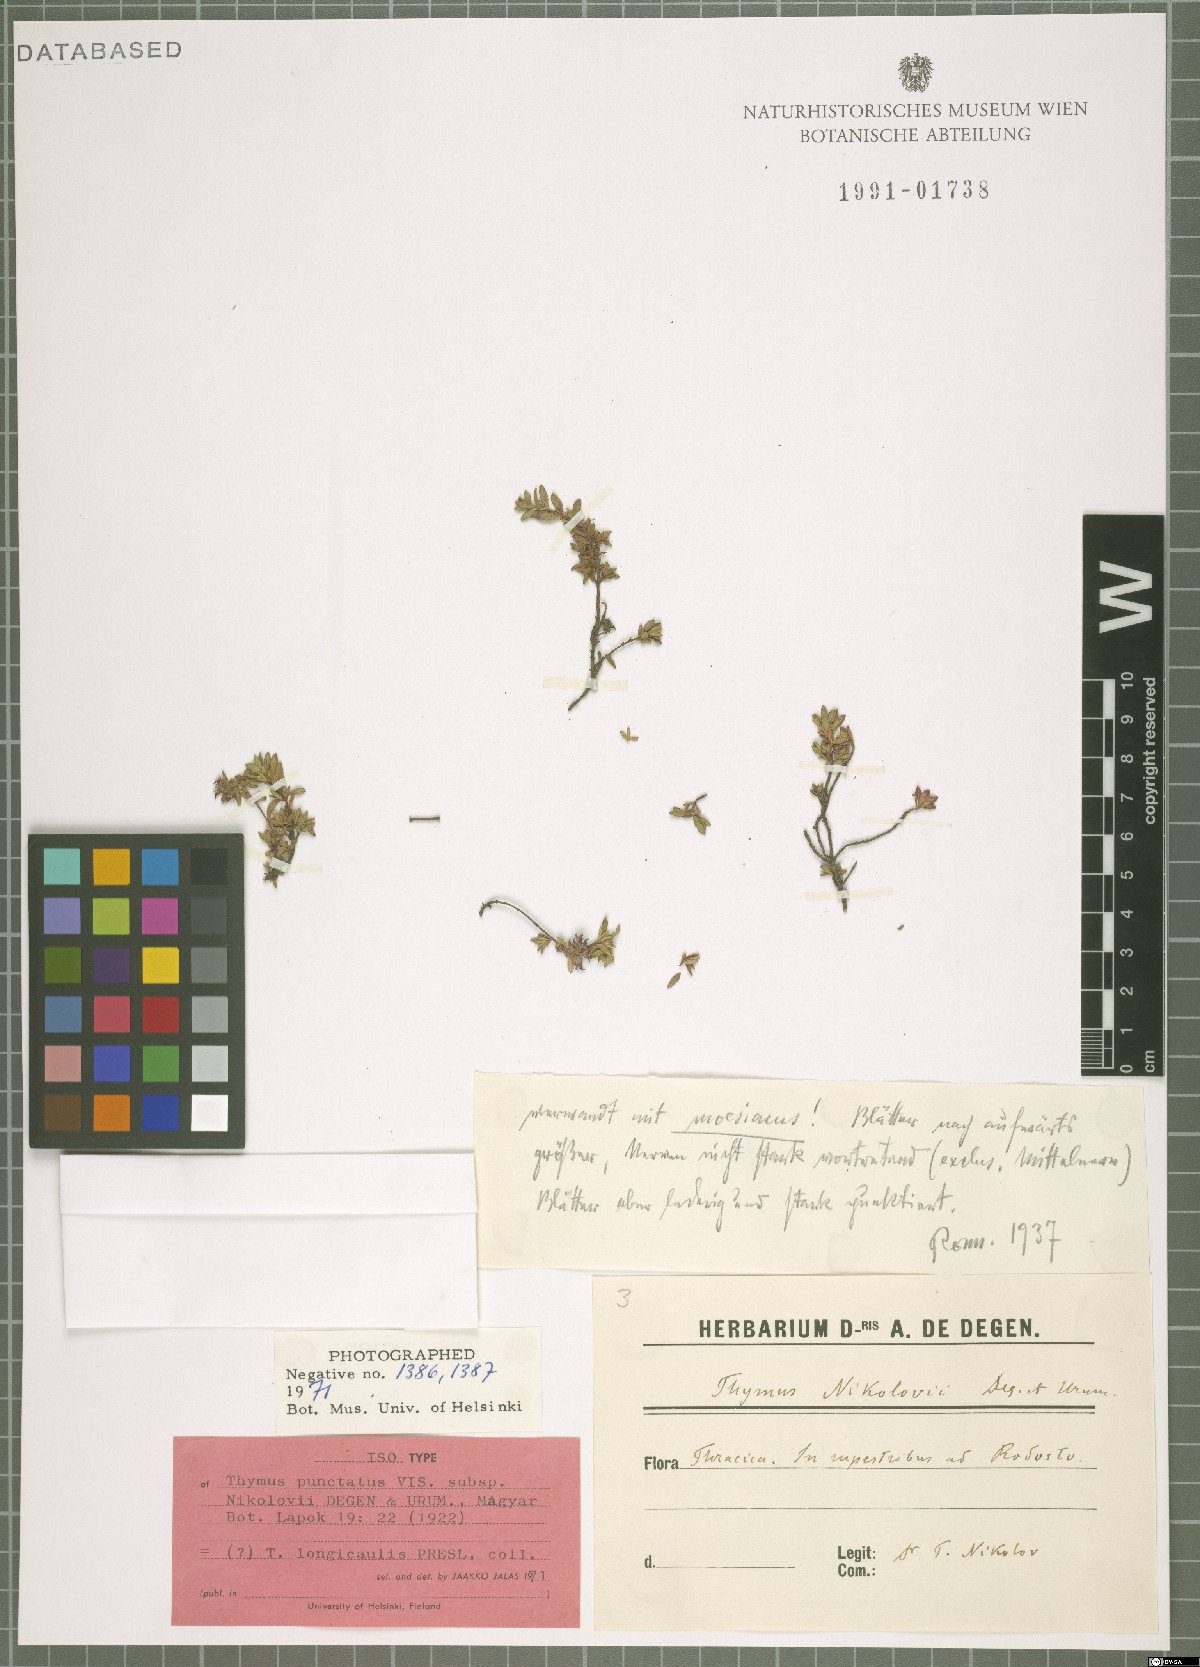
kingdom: Plantae
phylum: Tracheophyta
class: Magnoliopsida
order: Lamiales
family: Lamiaceae
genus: Thymus
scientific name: Thymus longicaulis
